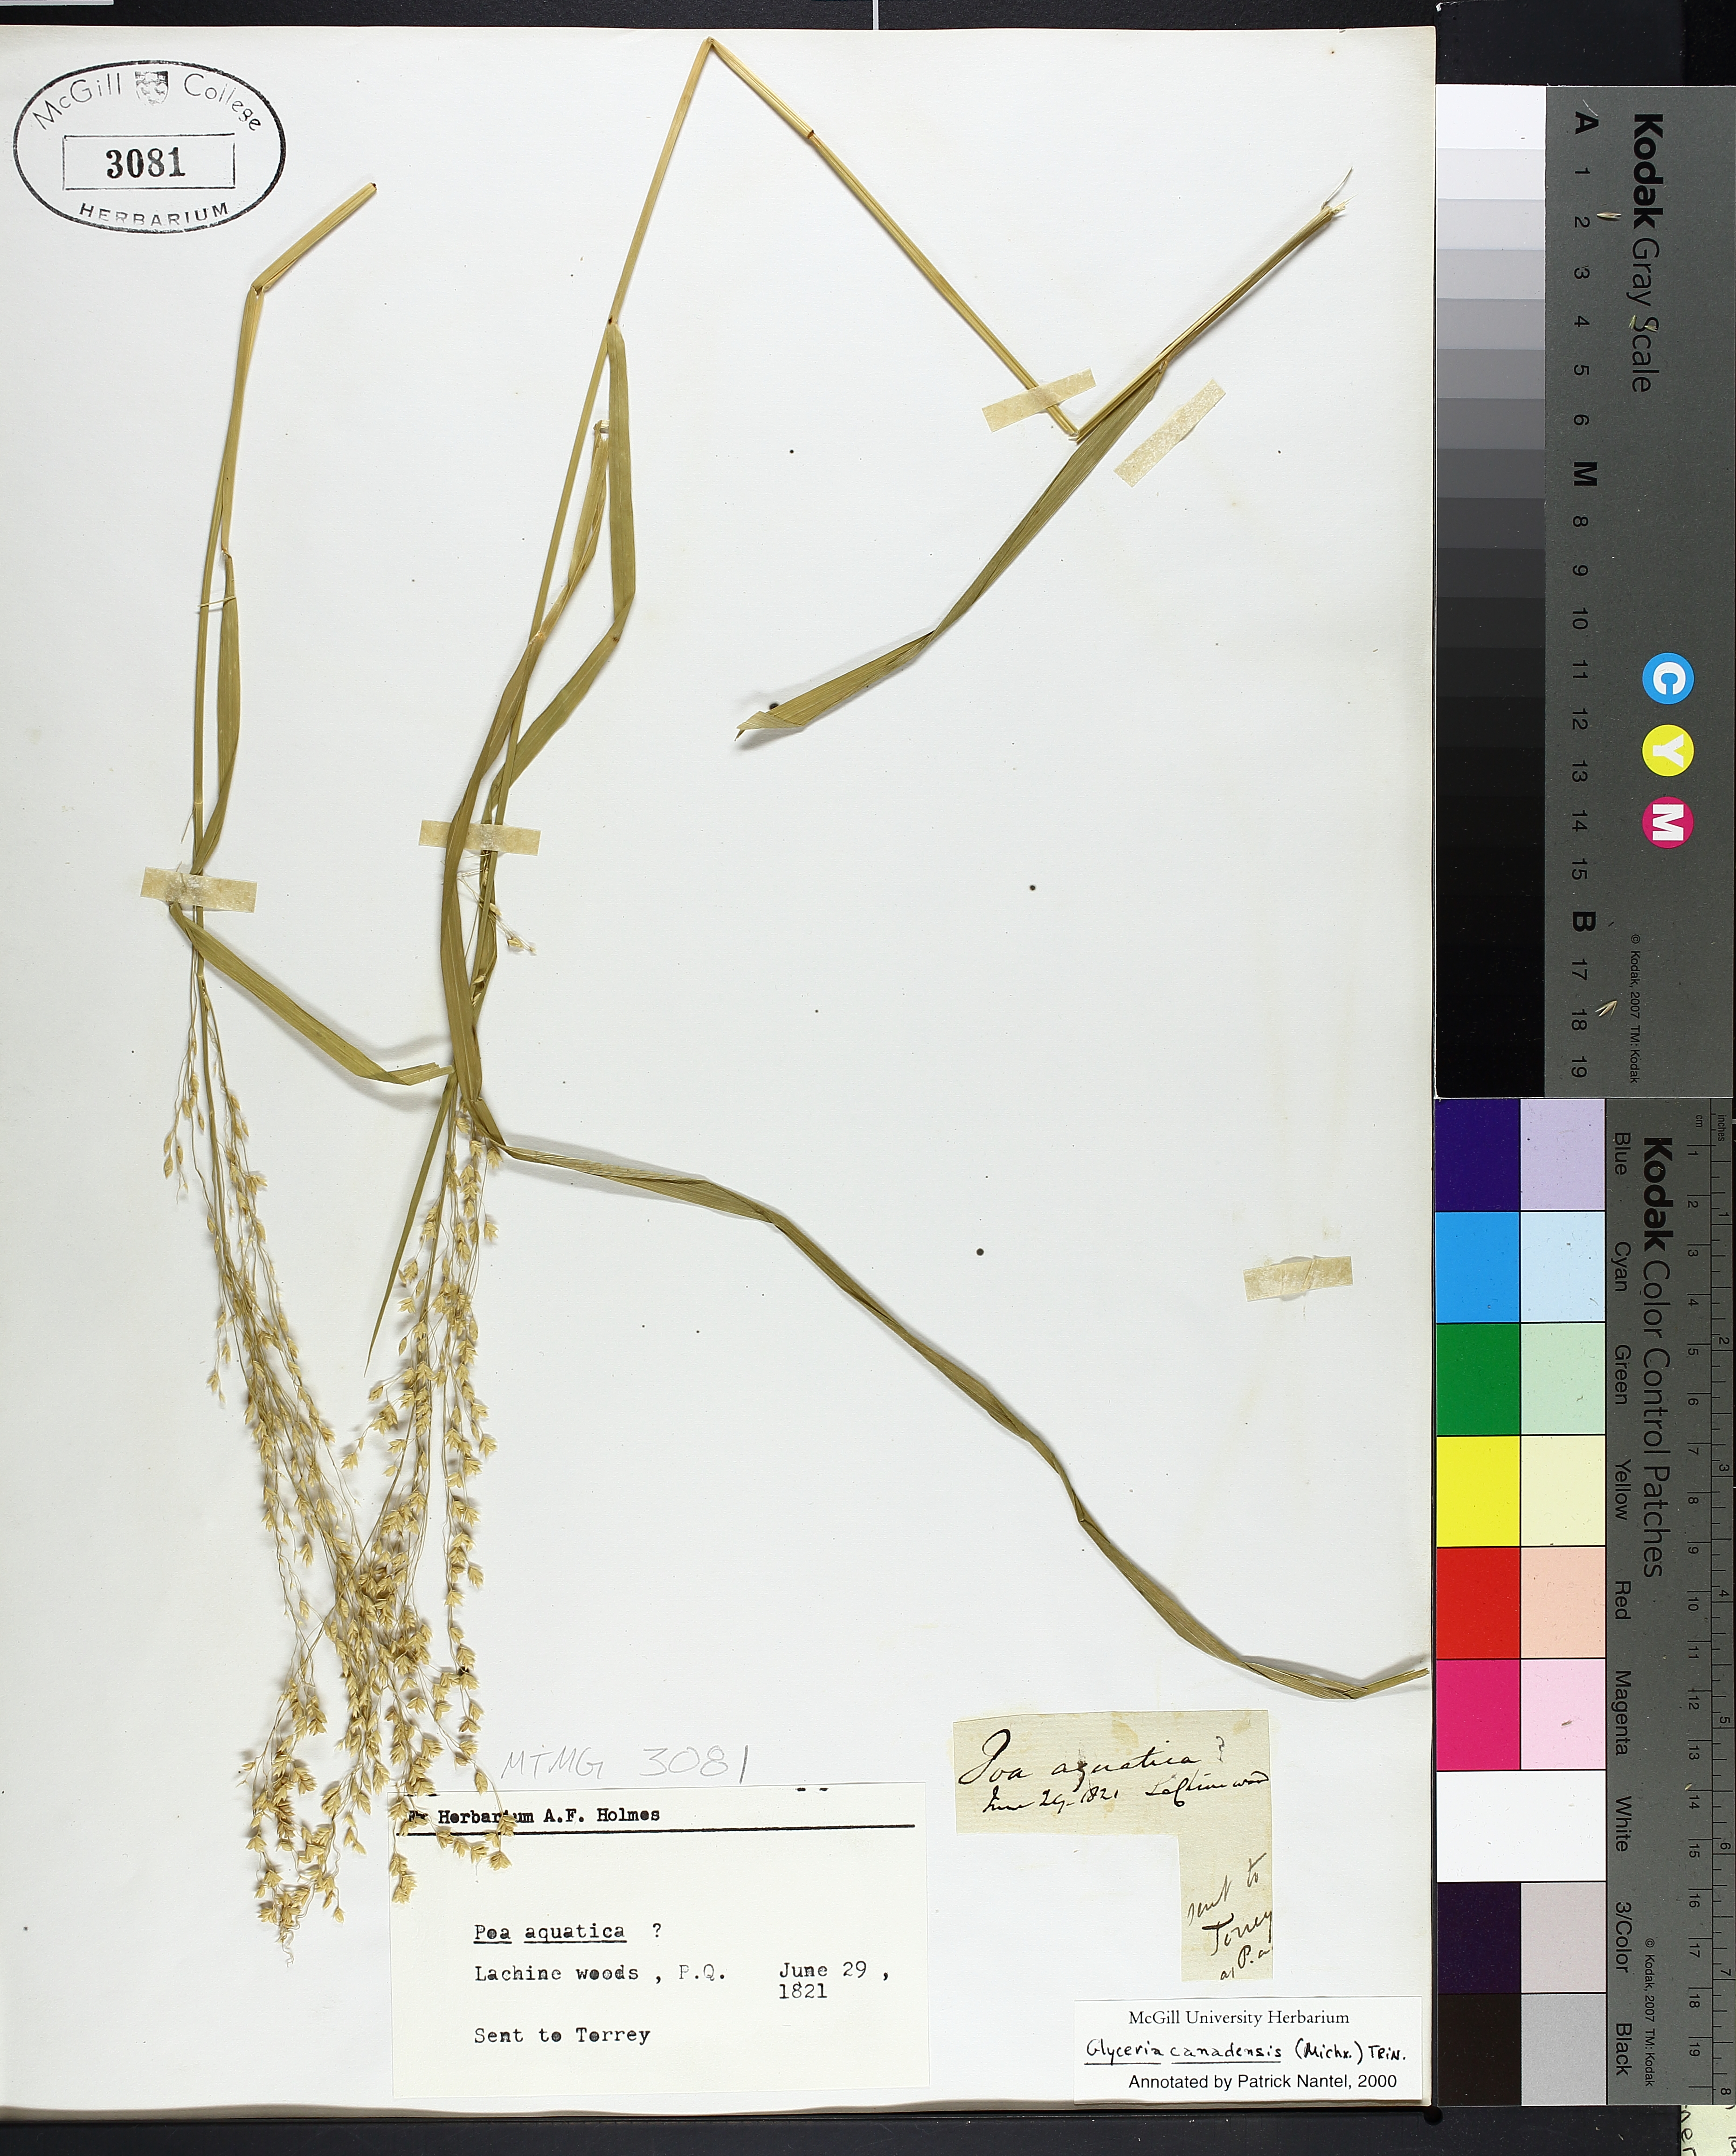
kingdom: Plantae
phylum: Tracheophyta
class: Liliopsida
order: Poales
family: Poaceae
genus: Glyceria
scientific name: Glyceria canadensis
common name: Canada mannagrass
